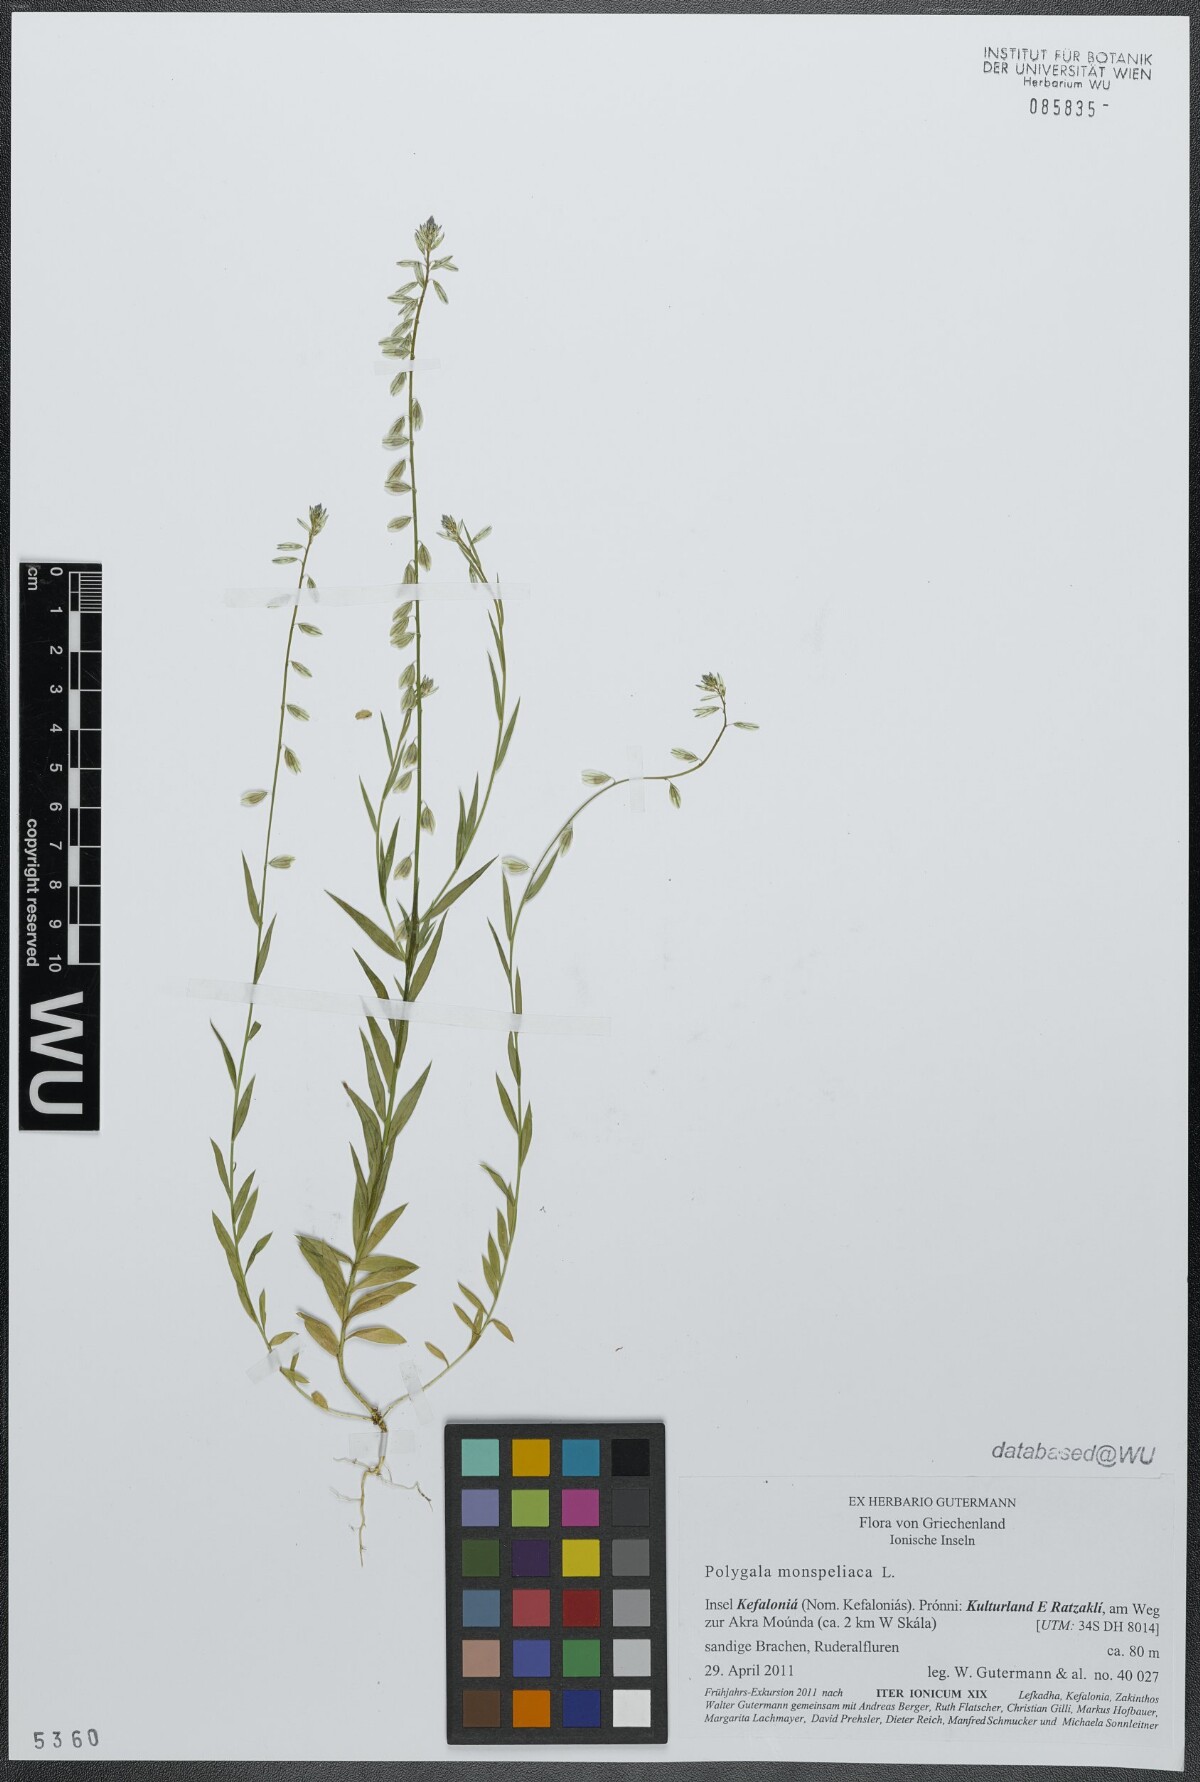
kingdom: Plantae
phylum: Tracheophyta
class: Magnoliopsida
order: Fabales
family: Polygalaceae
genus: Polygala
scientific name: Polygala monspeliaca
